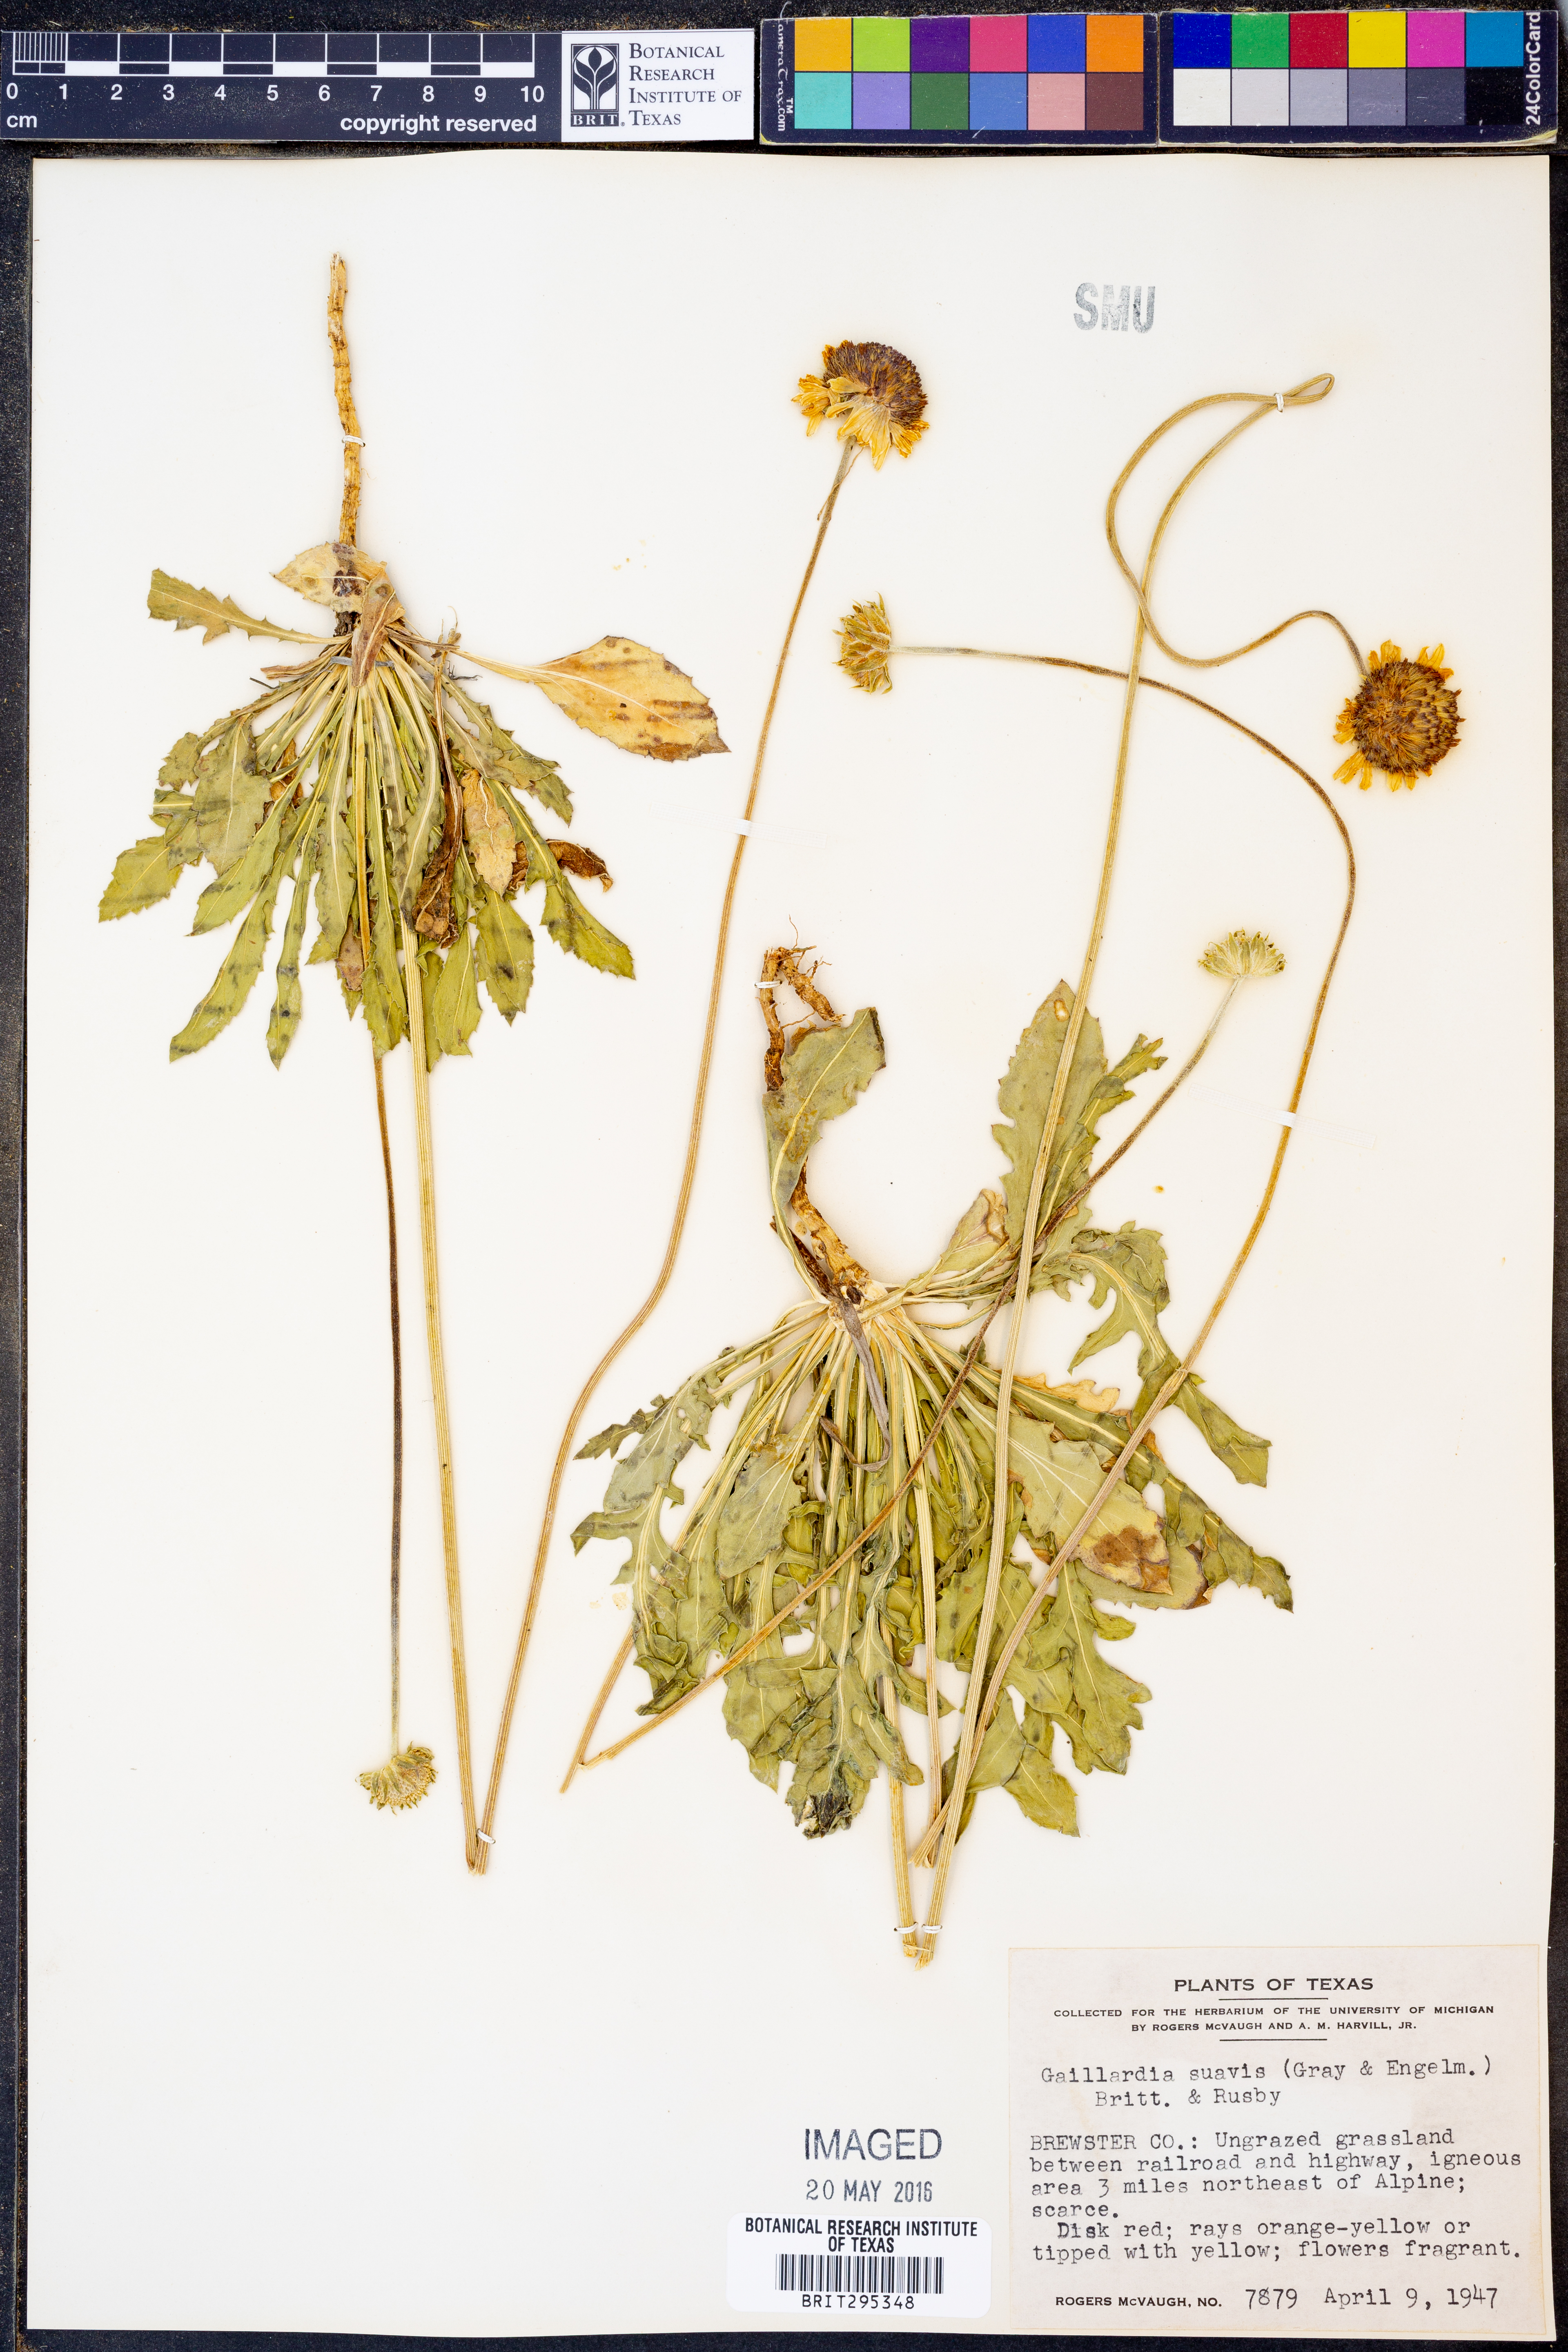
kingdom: Plantae
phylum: Tracheophyta
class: Magnoliopsida
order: Asterales
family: Asteraceae
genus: Gaillardia
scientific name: Gaillardia suavis
